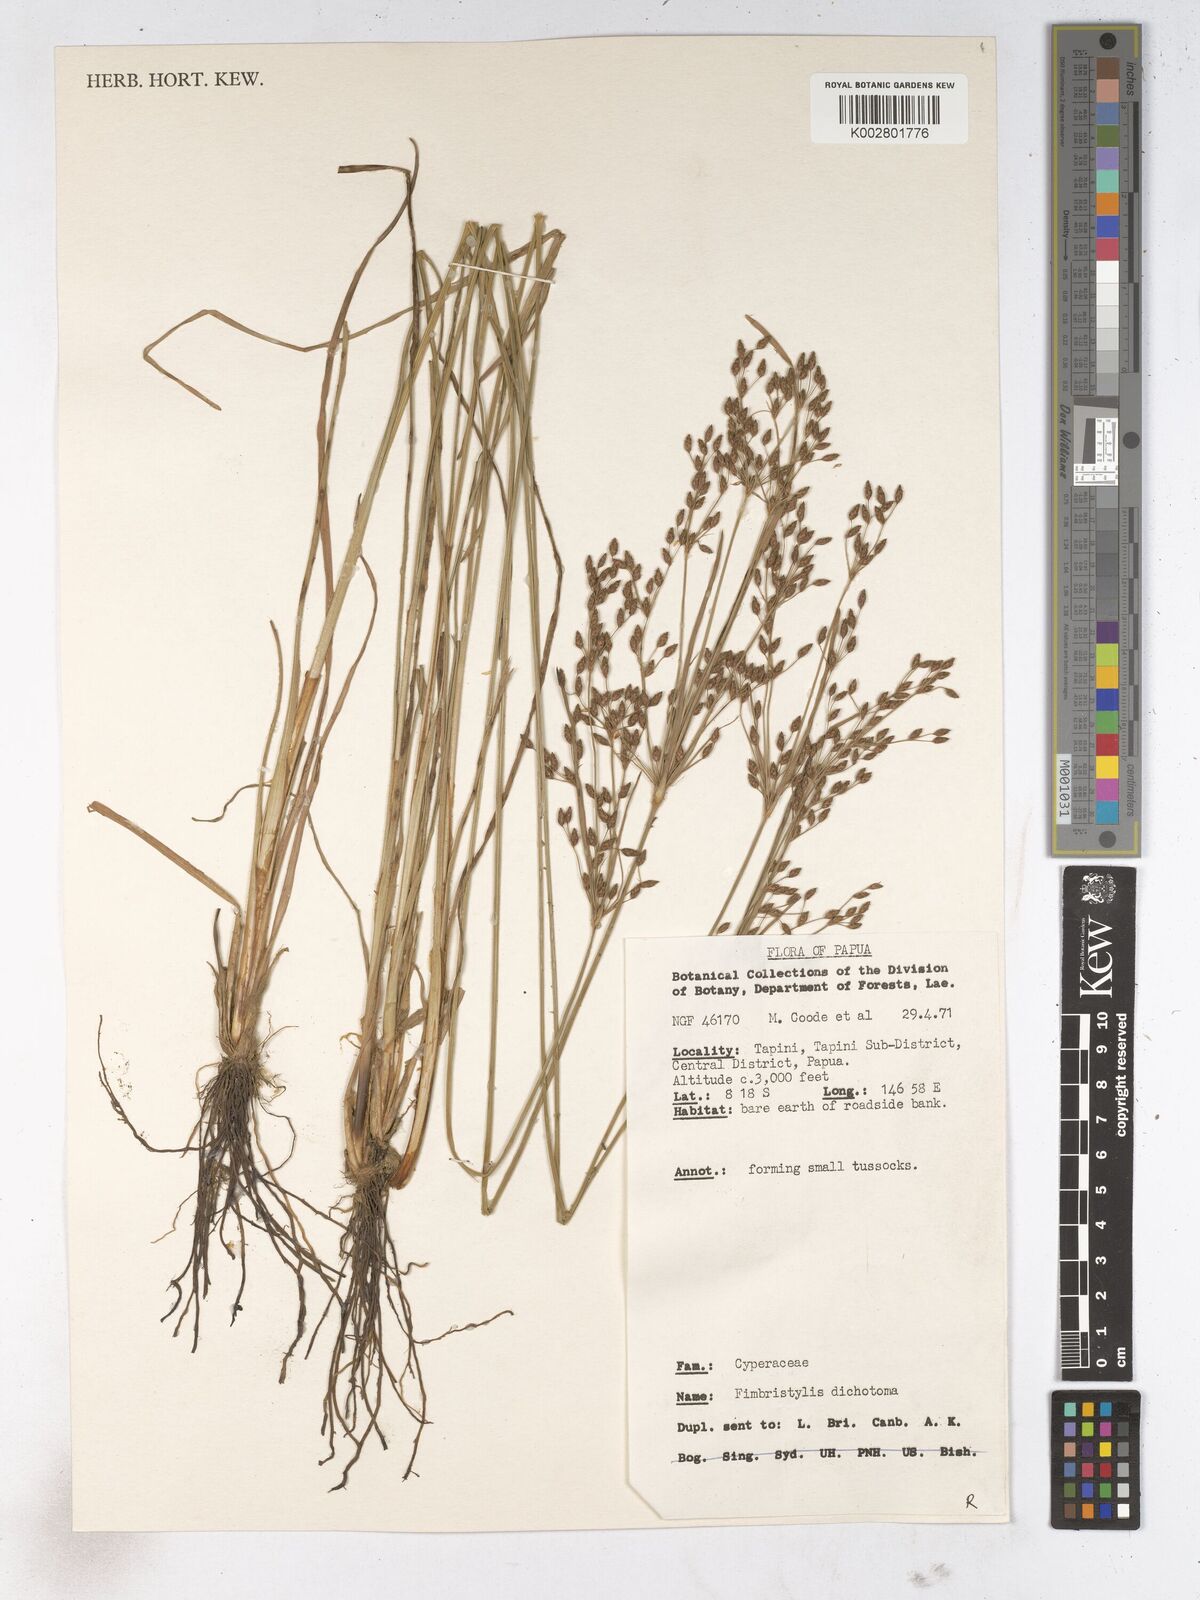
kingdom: Plantae
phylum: Tracheophyta
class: Liliopsida
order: Poales
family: Cyperaceae
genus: Fimbristylis
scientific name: Fimbristylis dichotoma
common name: Forked fimbry
